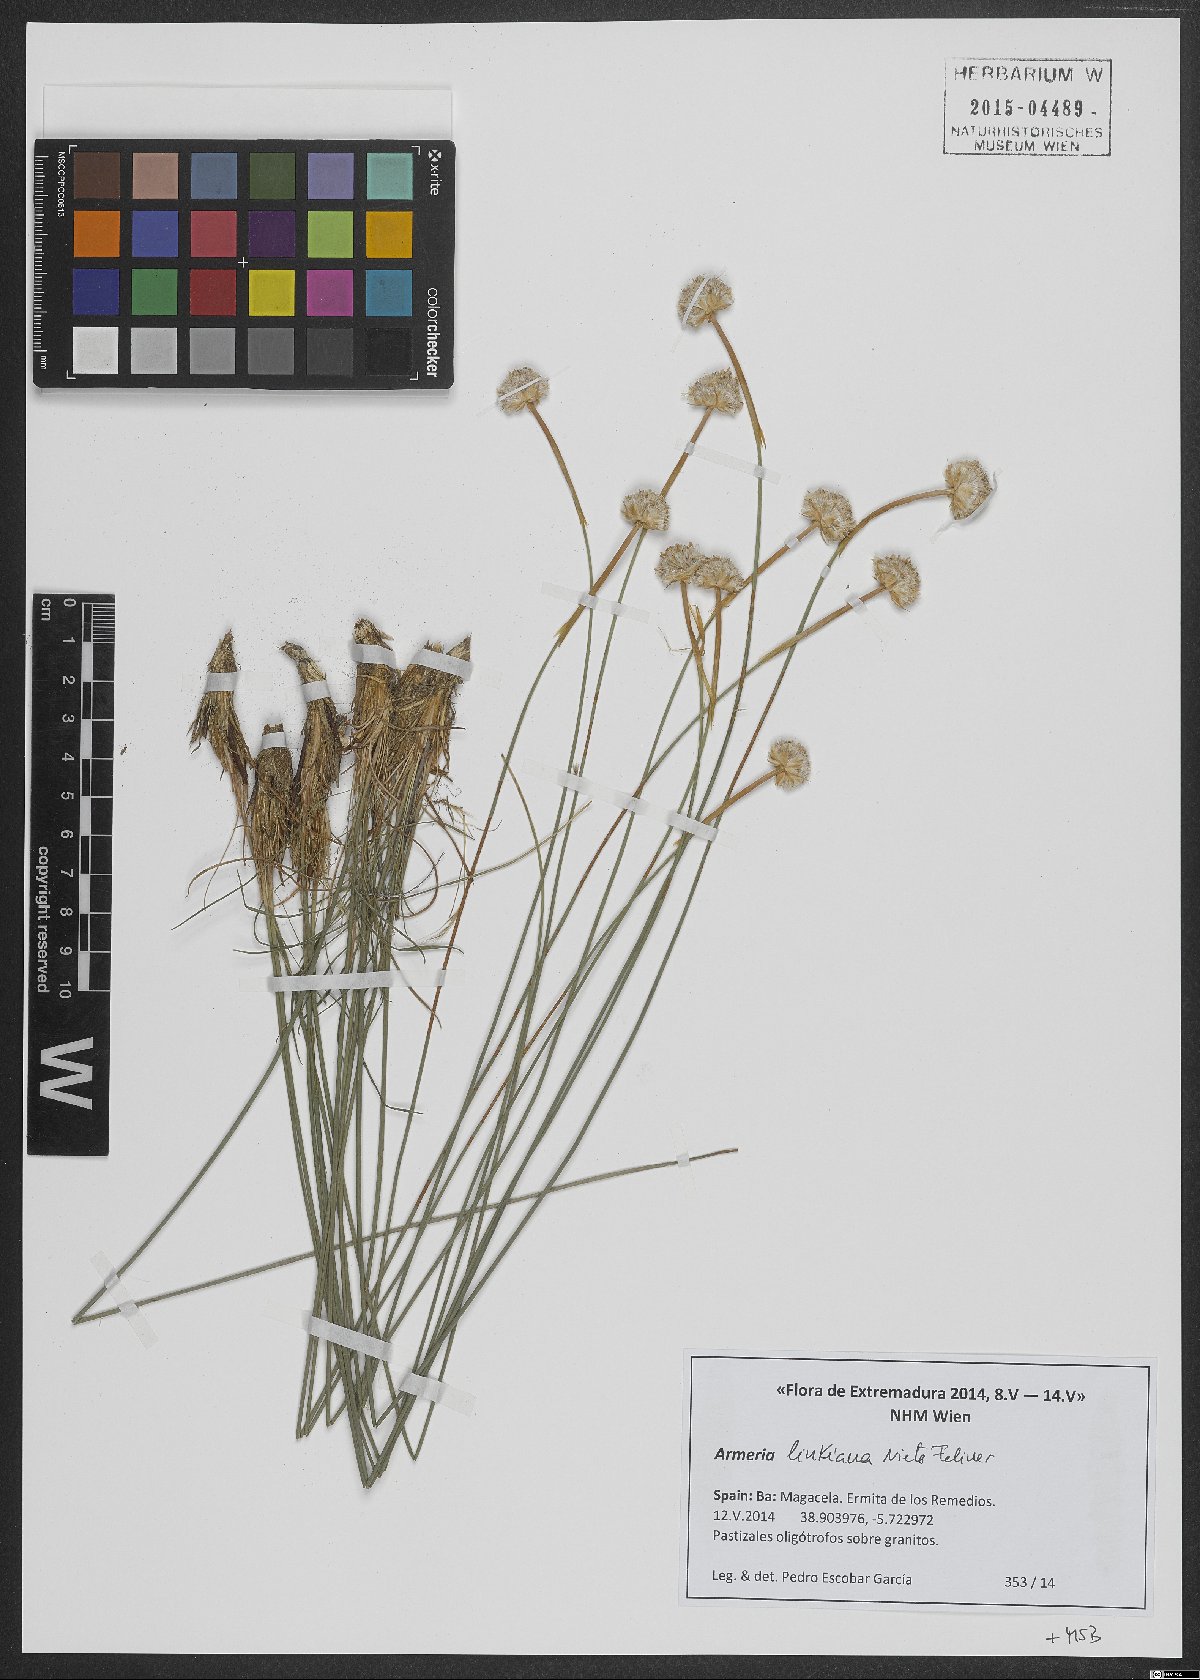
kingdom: Plantae
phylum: Tracheophyta
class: Magnoliopsida
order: Caryophyllales
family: Plumbaginaceae
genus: Armeria
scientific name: Armeria linkiana
